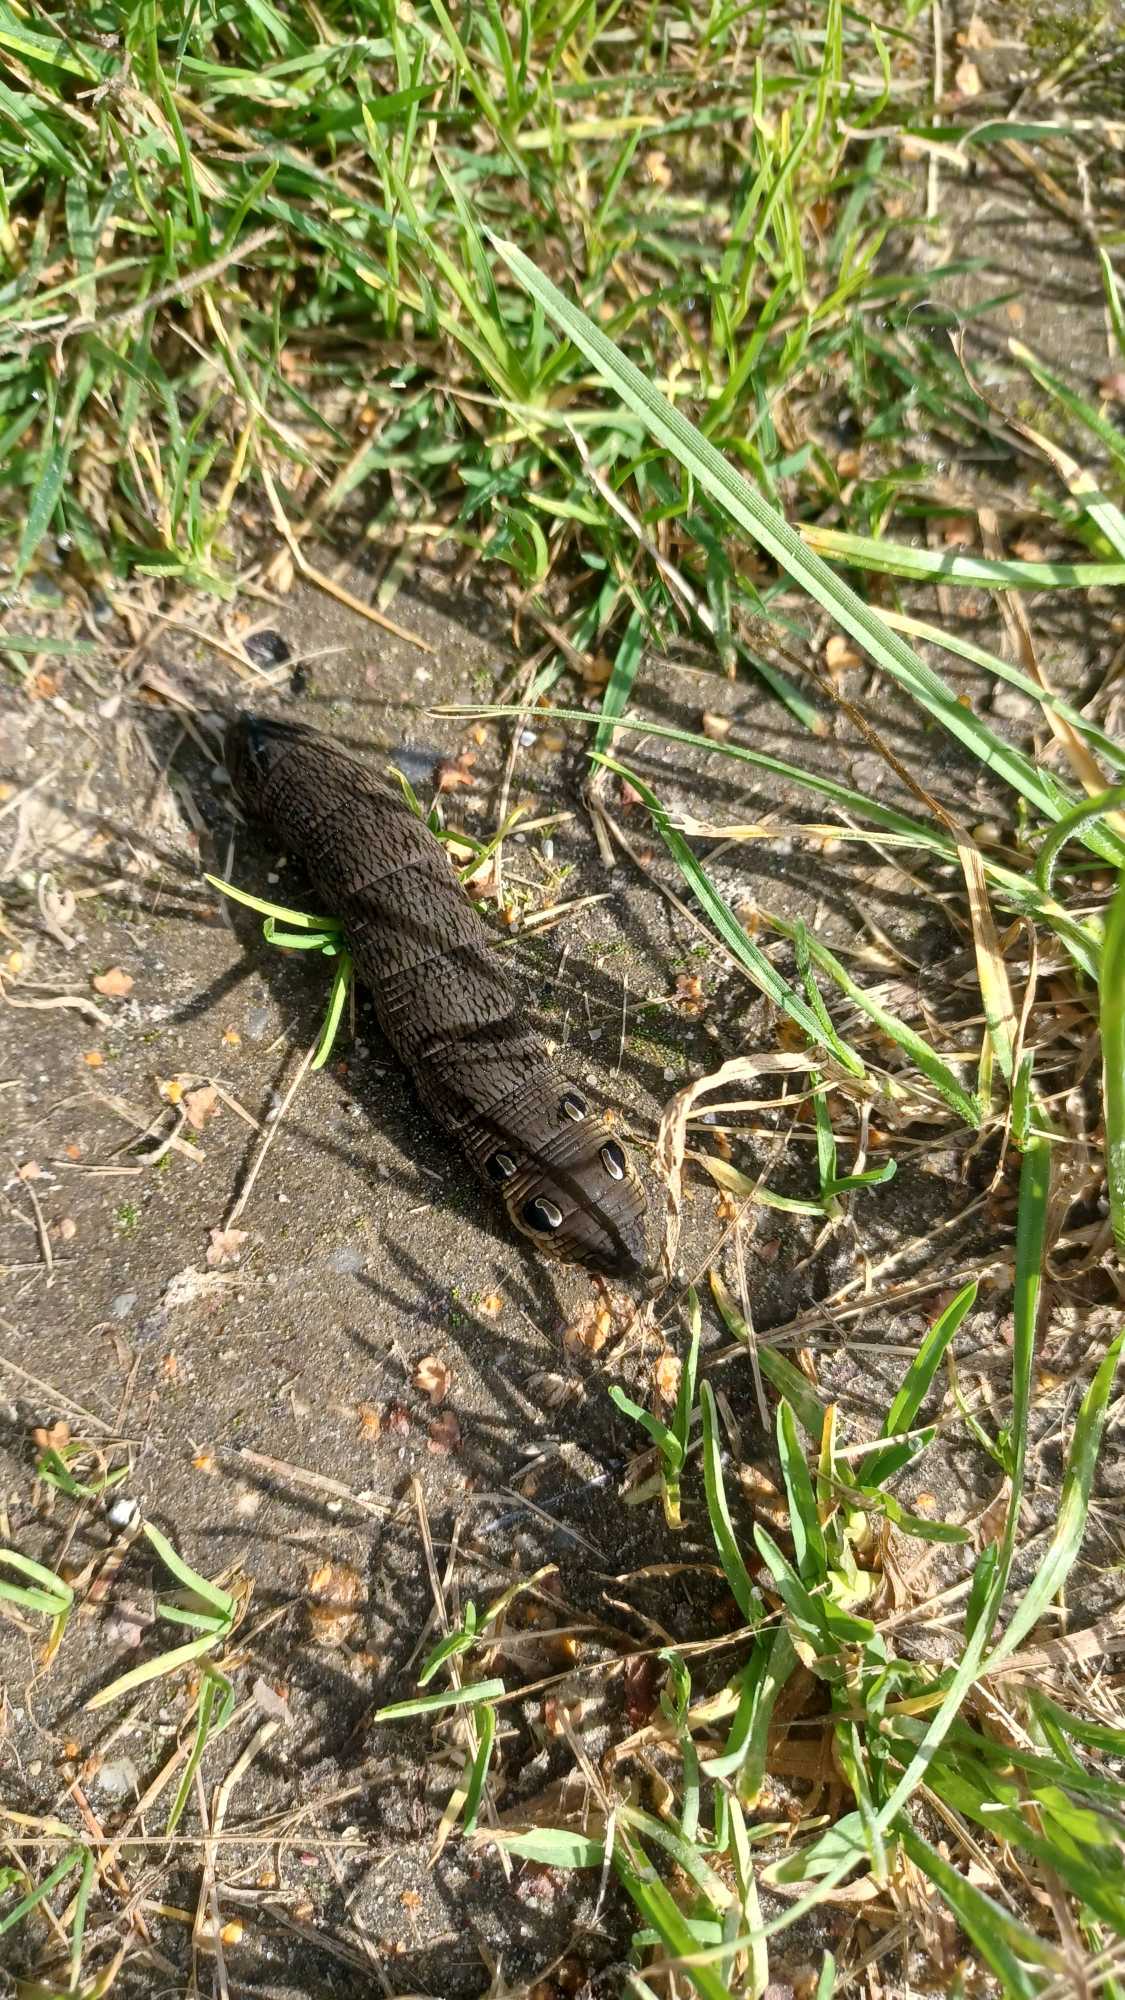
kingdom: Animalia
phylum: Arthropoda
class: Insecta
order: Lepidoptera
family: Sphingidae
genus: Deilephila
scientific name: Deilephila elpenor
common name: Dueurtsværmer
